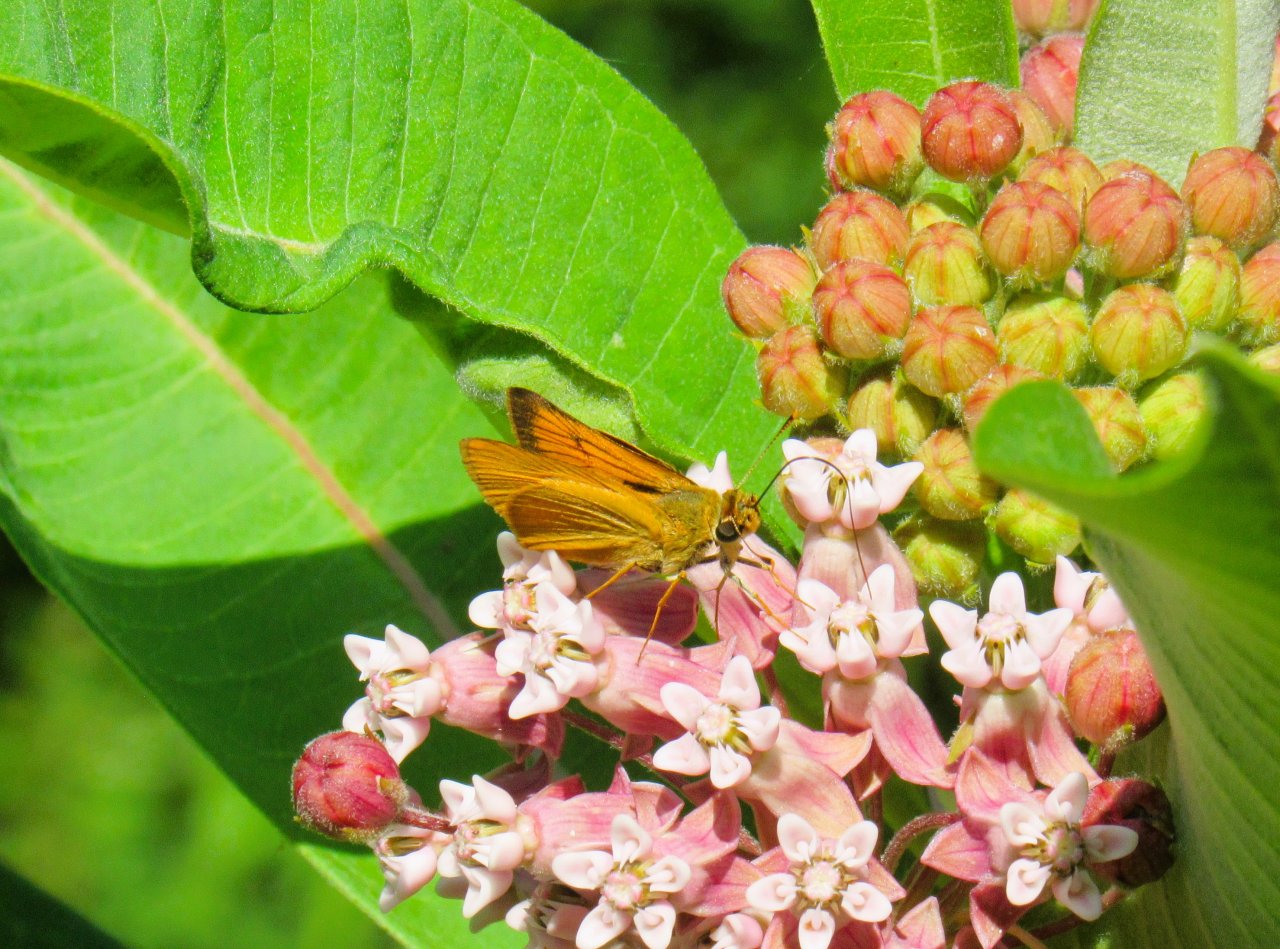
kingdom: Animalia
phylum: Arthropoda
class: Insecta
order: Lepidoptera
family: Hesperiidae
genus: Atrytone
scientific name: Atrytone delaware
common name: Delaware Skipper
